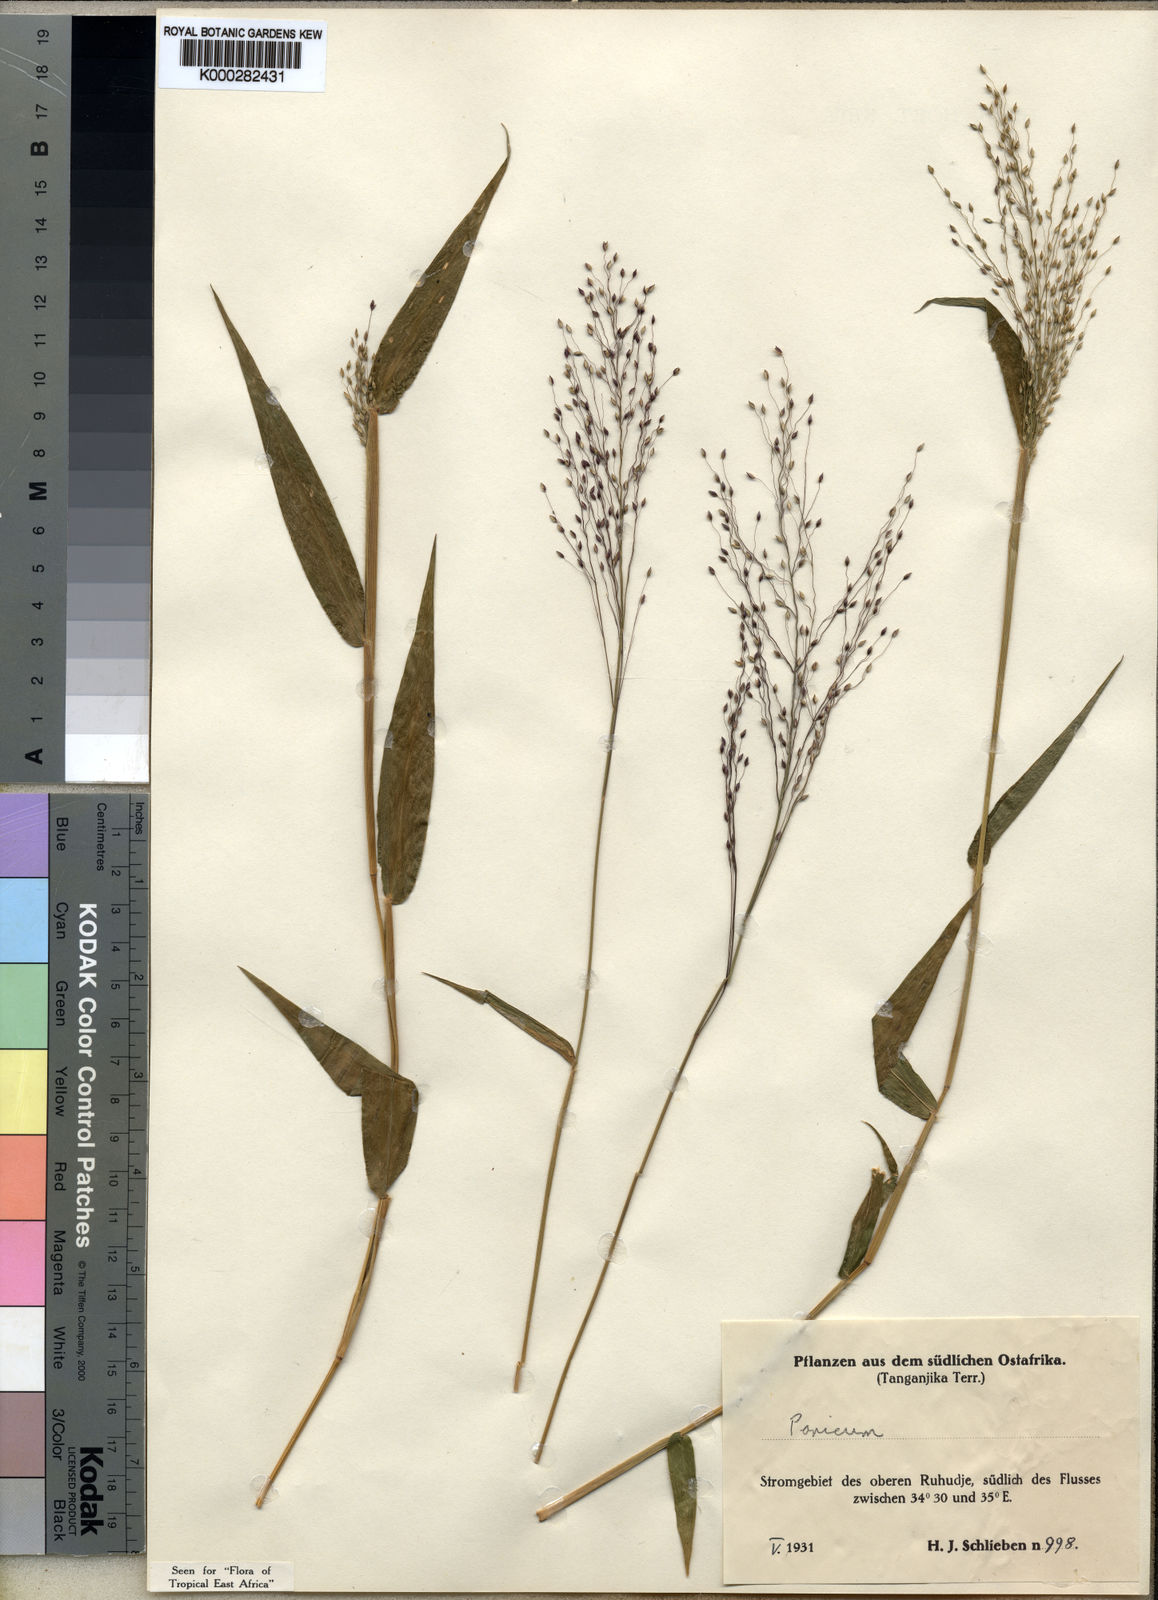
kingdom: Plantae
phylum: Tracheophyta
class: Liliopsida
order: Poales
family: Poaceae
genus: Panicum
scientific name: Panicum mapalense
